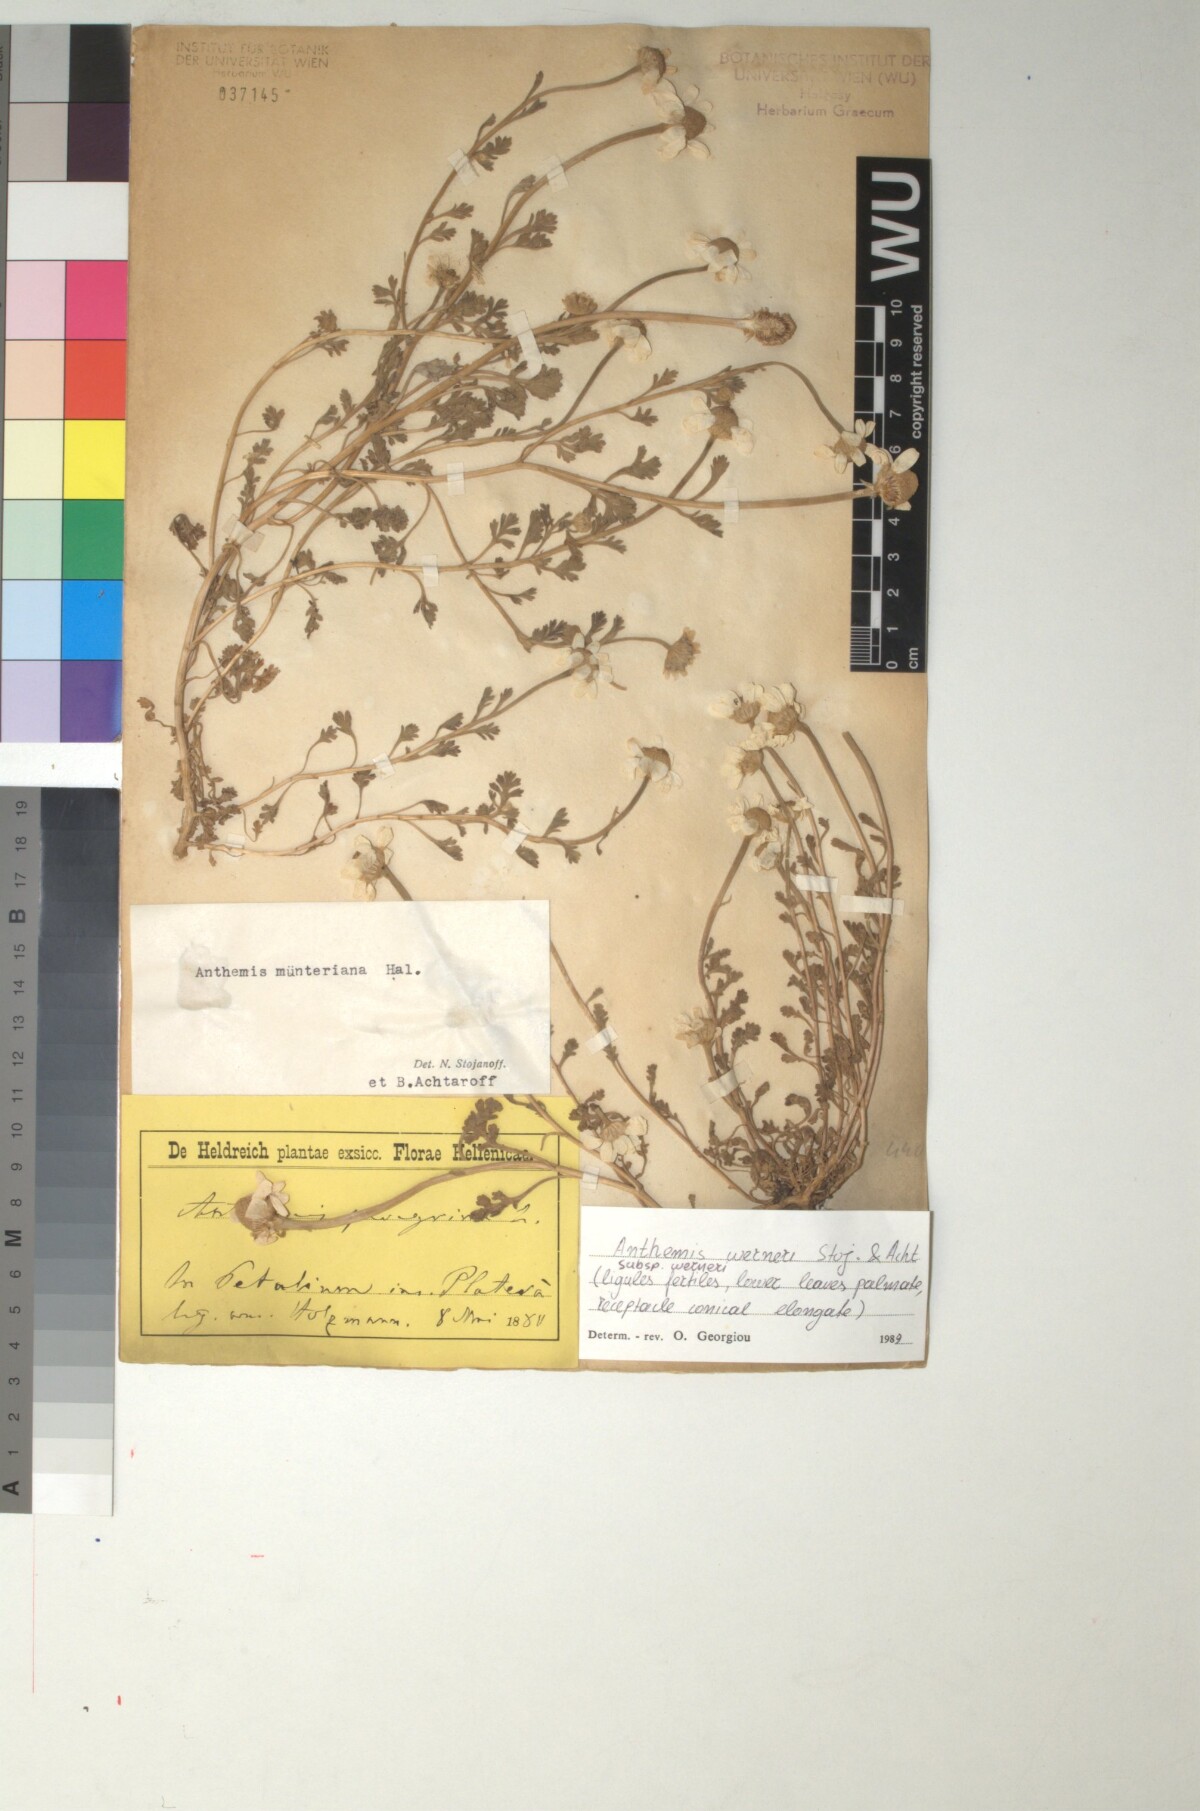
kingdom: Plantae
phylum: Tracheophyta
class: Magnoliopsida
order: Asterales
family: Asteraceae
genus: Anthemis
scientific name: Anthemis tomentosa
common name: Woolly chamomile
